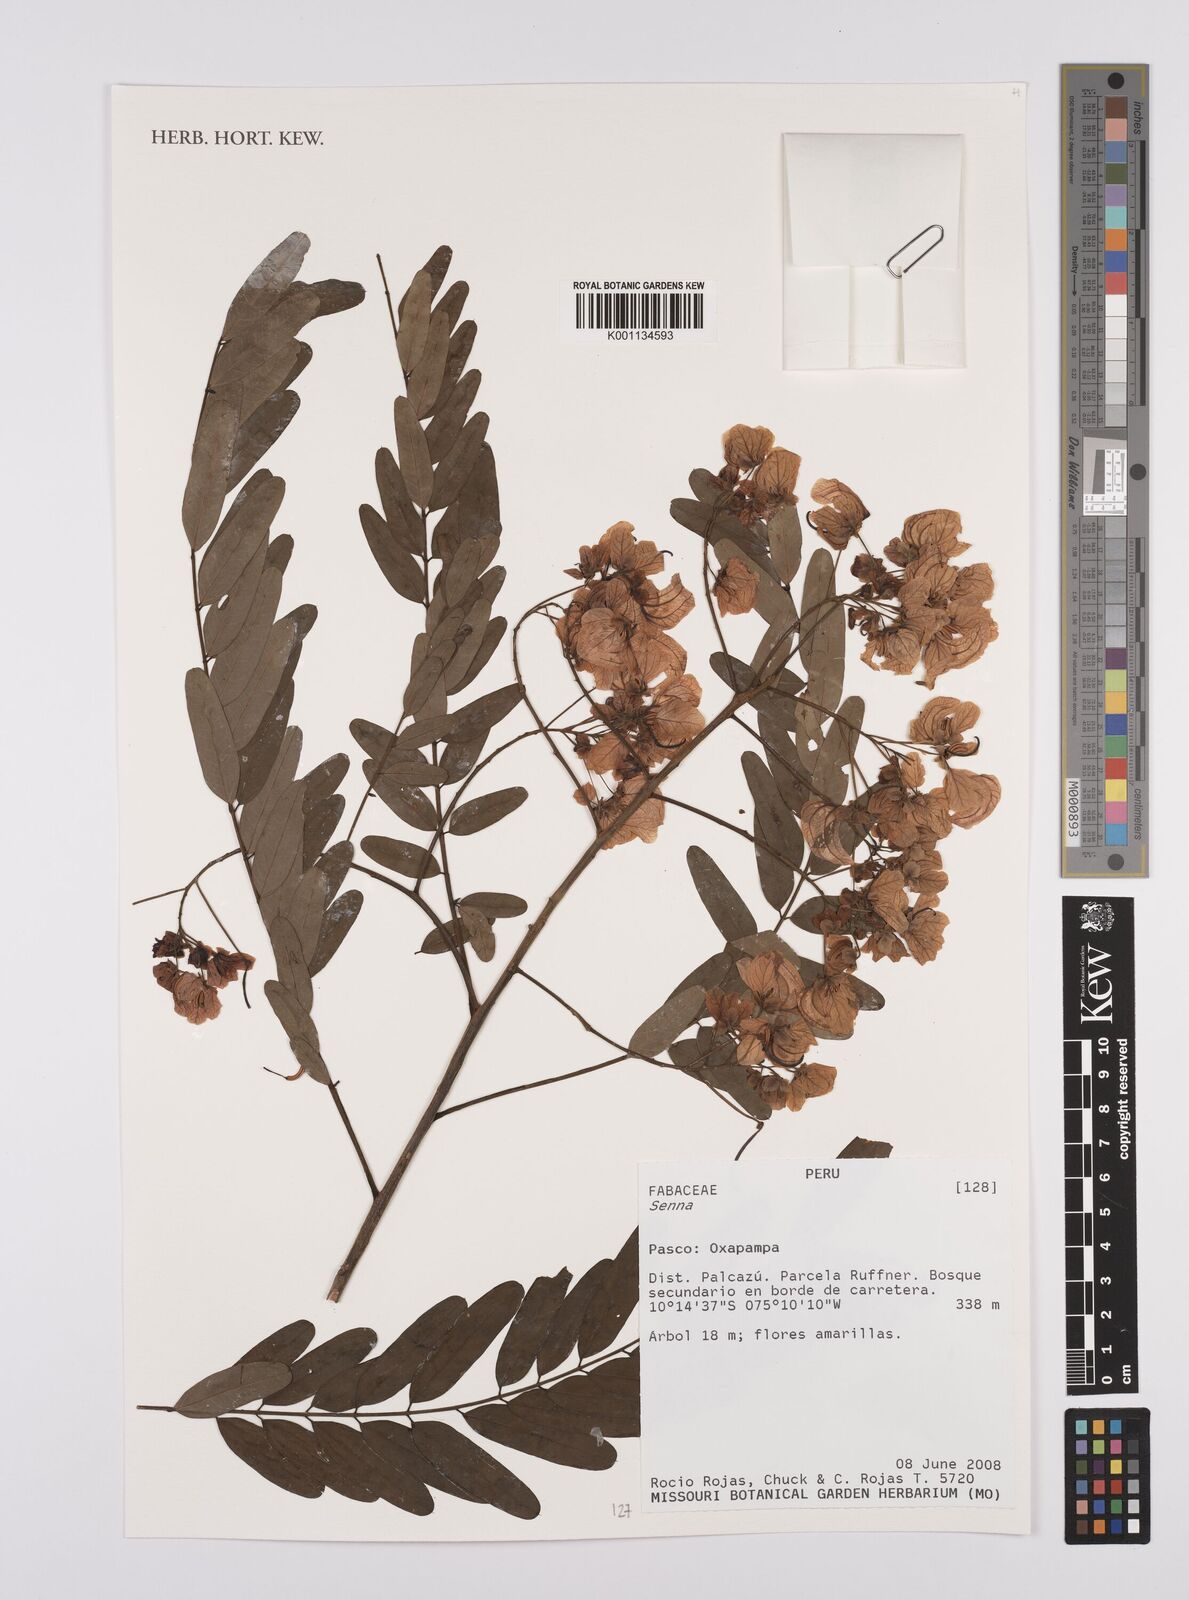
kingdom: Plantae
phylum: Tracheophyta
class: Magnoliopsida
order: Fabales
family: Fabaceae
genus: Senna
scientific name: Senna
